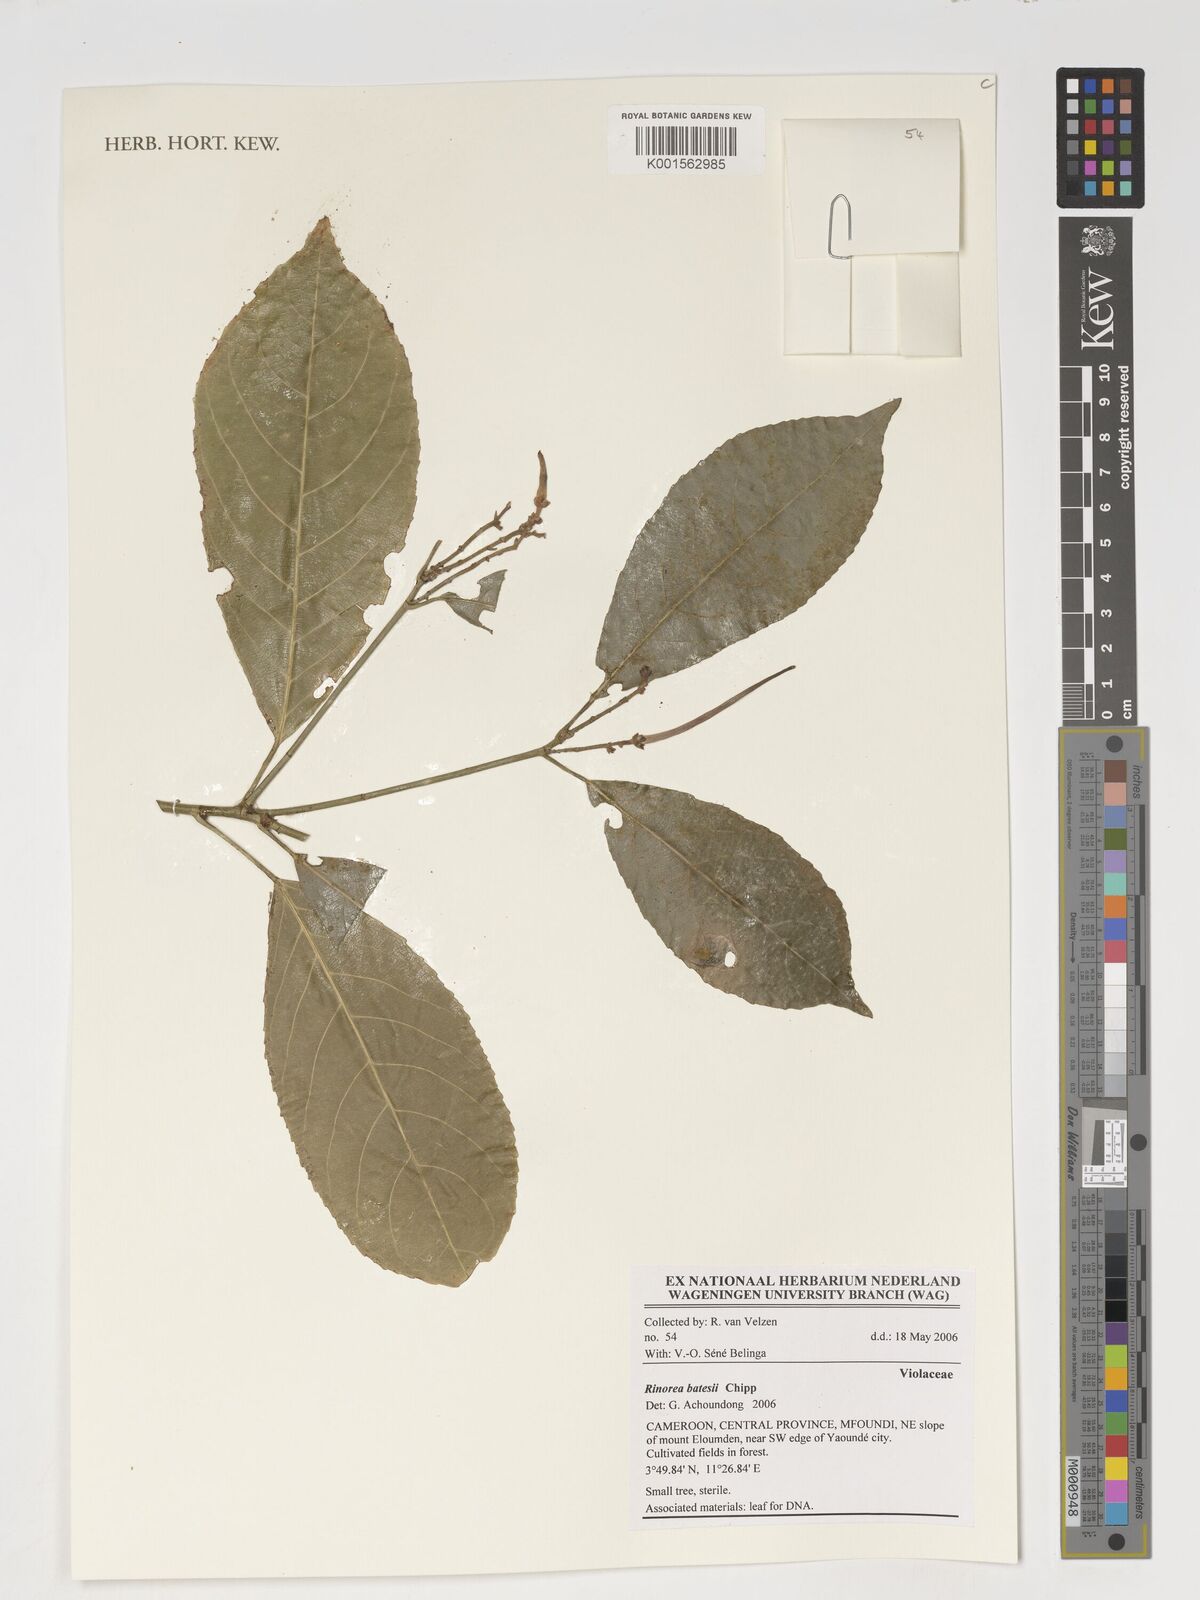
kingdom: Plantae
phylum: Tracheophyta
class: Magnoliopsida
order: Malpighiales
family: Violaceae
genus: Rinorea
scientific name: Rinorea batesii
